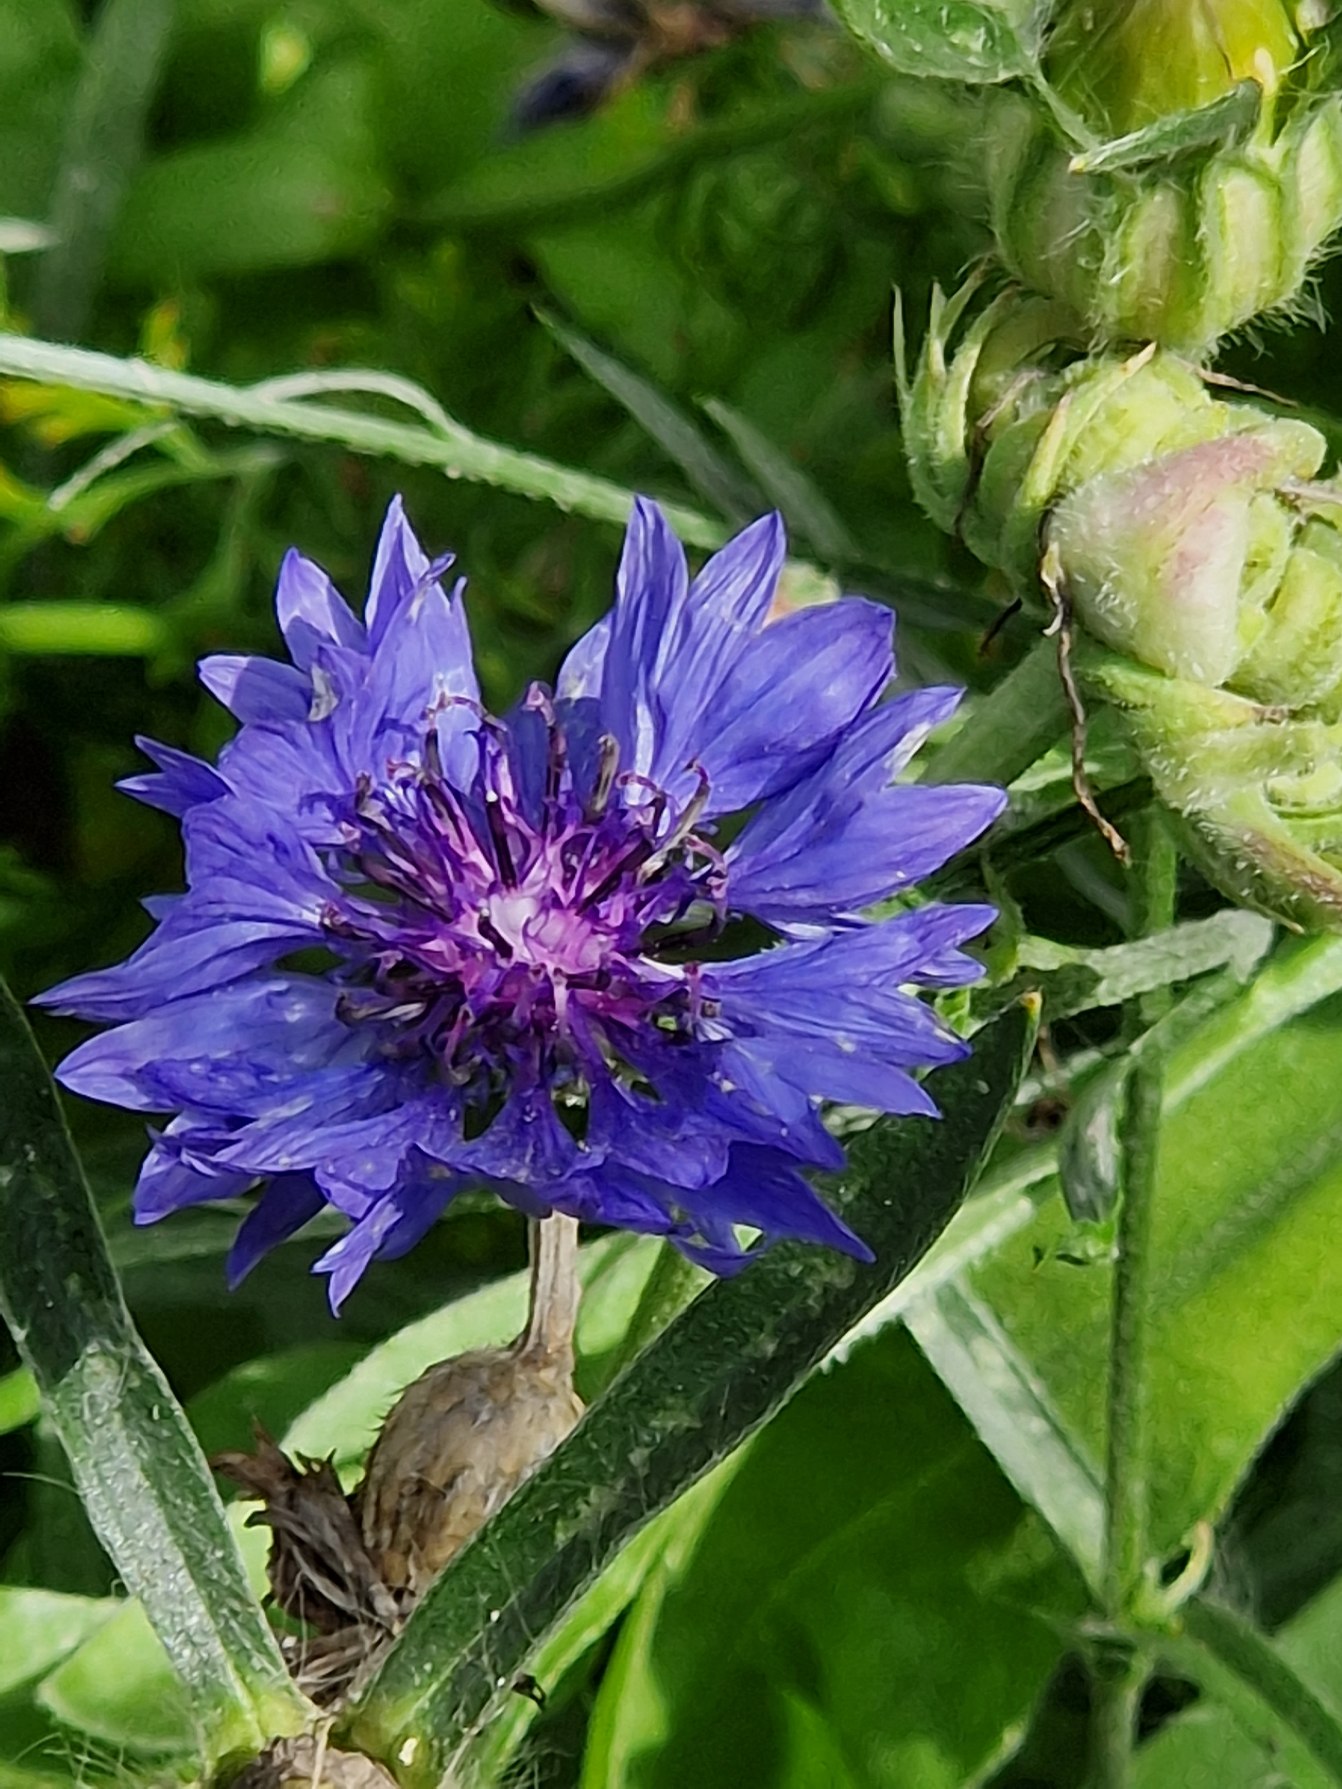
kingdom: Plantae
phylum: Tracheophyta
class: Magnoliopsida
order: Asterales
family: Asteraceae
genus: Centaurea
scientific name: Centaurea cyanus
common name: Kornblomst
